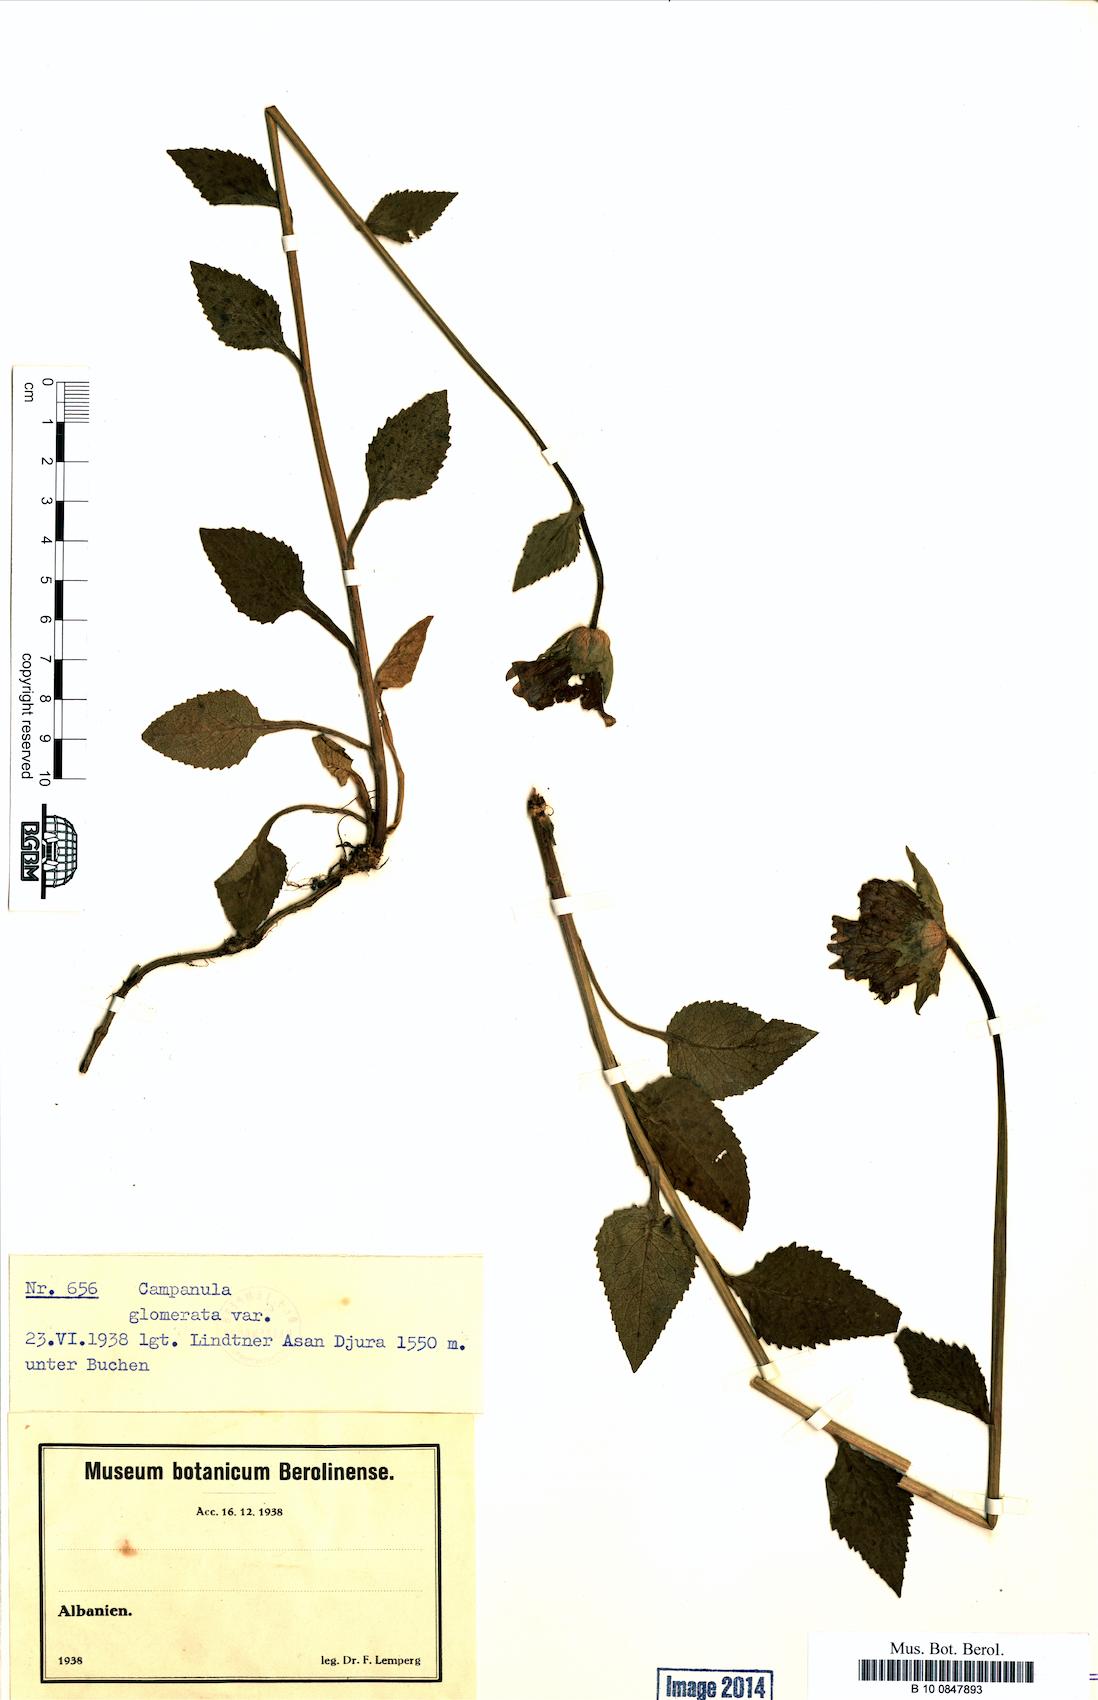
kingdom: Plantae
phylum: Tracheophyta
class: Magnoliopsida
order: Asterales
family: Campanulaceae
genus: Campanula
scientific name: Campanula glomerata
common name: Clustered bellflower
